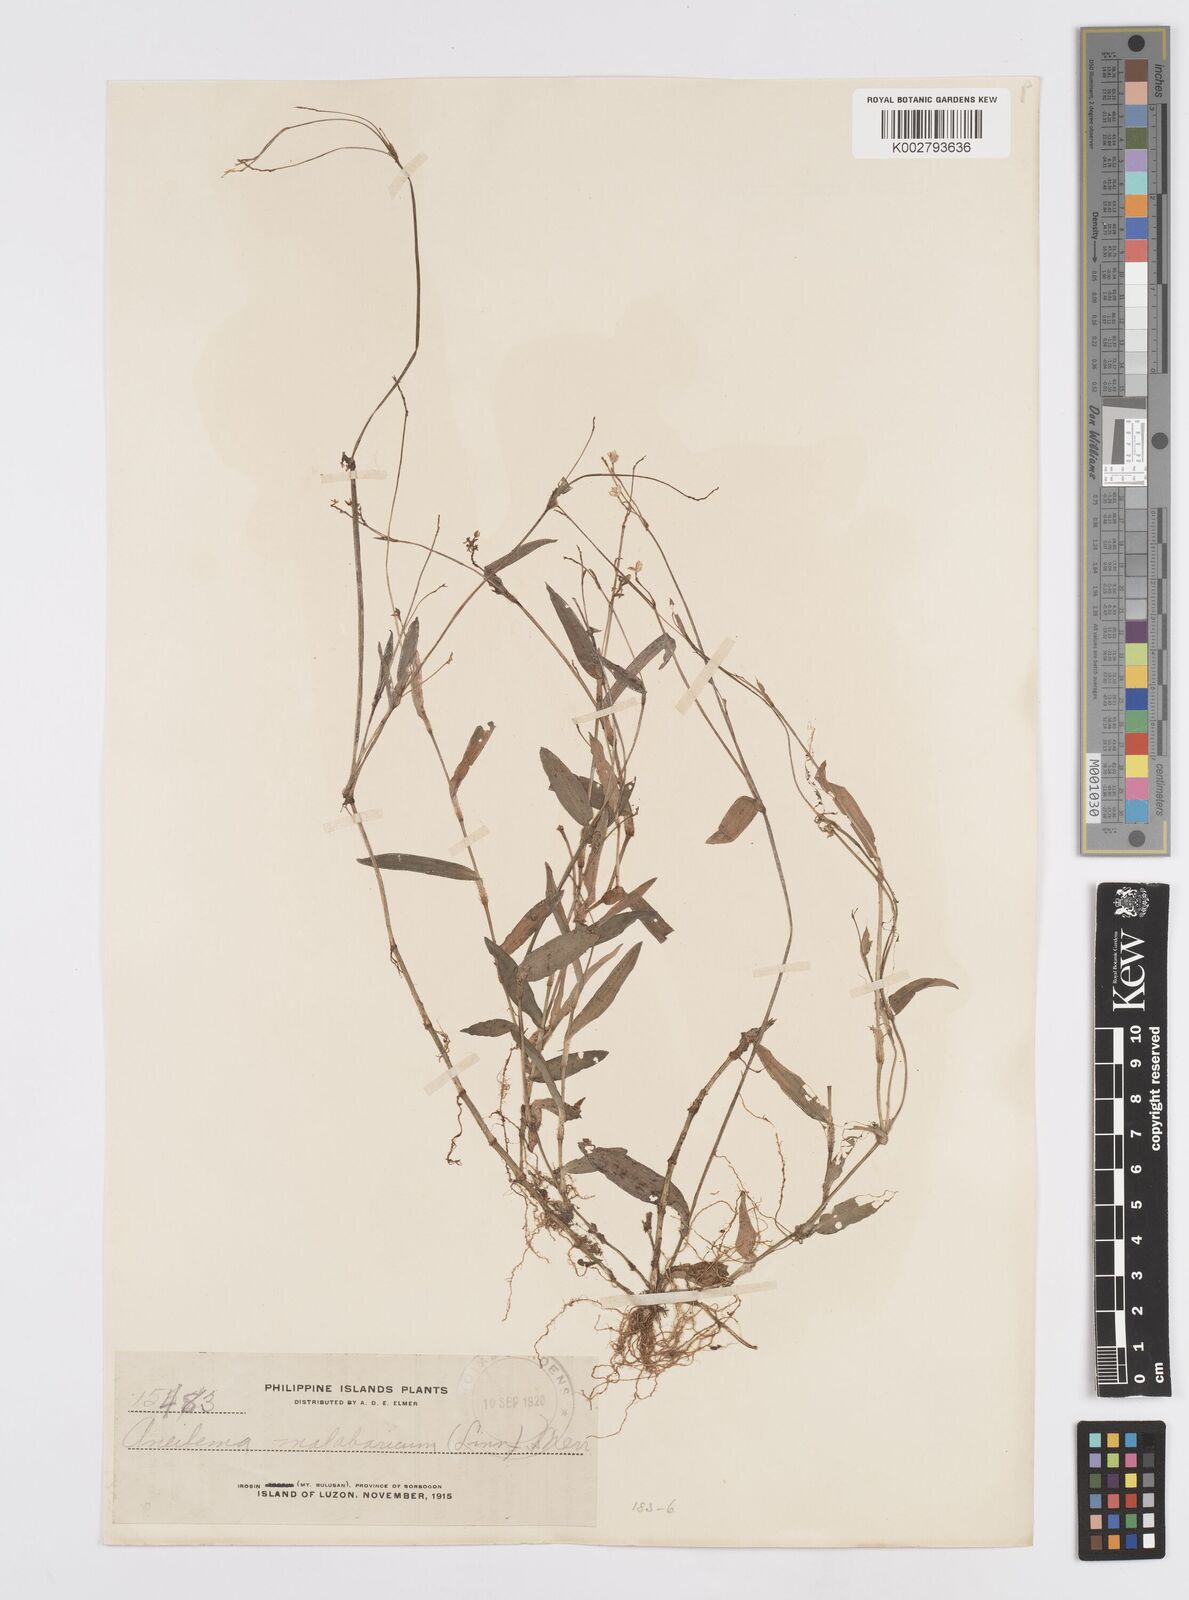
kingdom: Plantae
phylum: Tracheophyta
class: Liliopsida
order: Commelinales
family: Commelinaceae
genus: Murdannia
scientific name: Murdannia nudiflora
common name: Nakedstem dewflower
